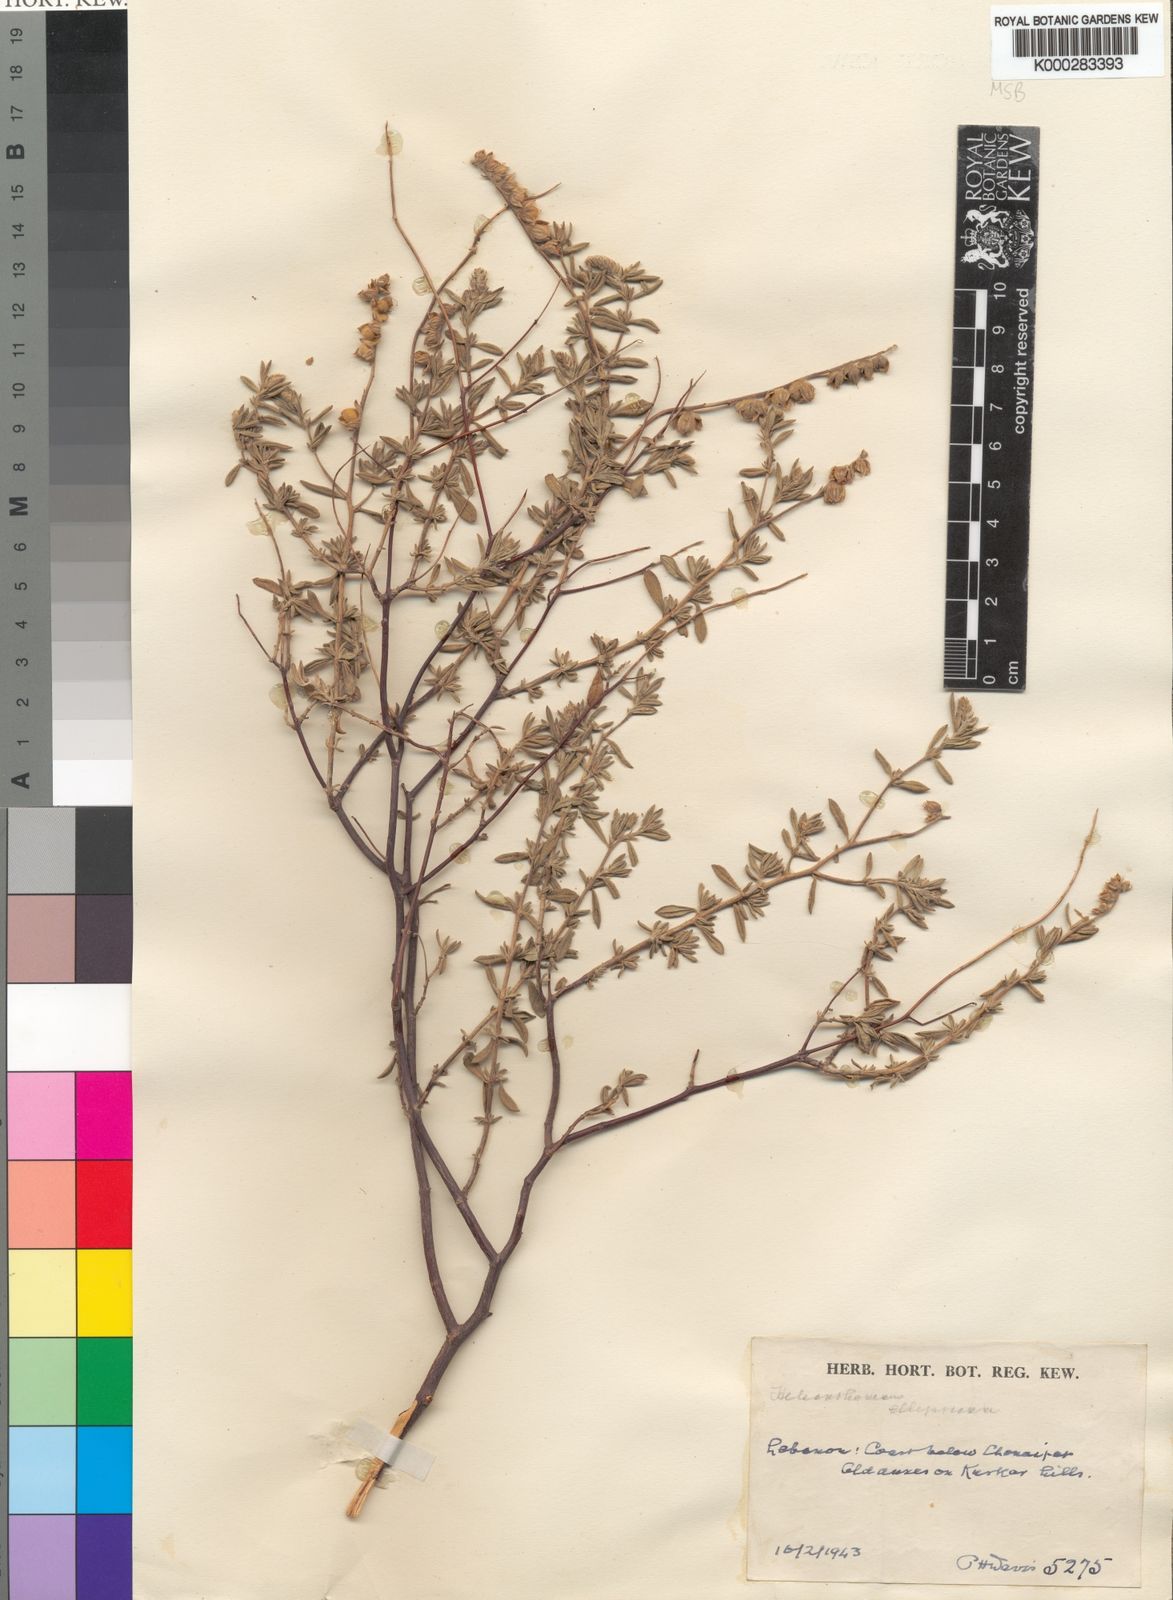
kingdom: Plantae
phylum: Tracheophyta
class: Magnoliopsida
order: Malvales
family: Cistaceae
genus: Helianthemum
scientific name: Helianthemum stipulatum
